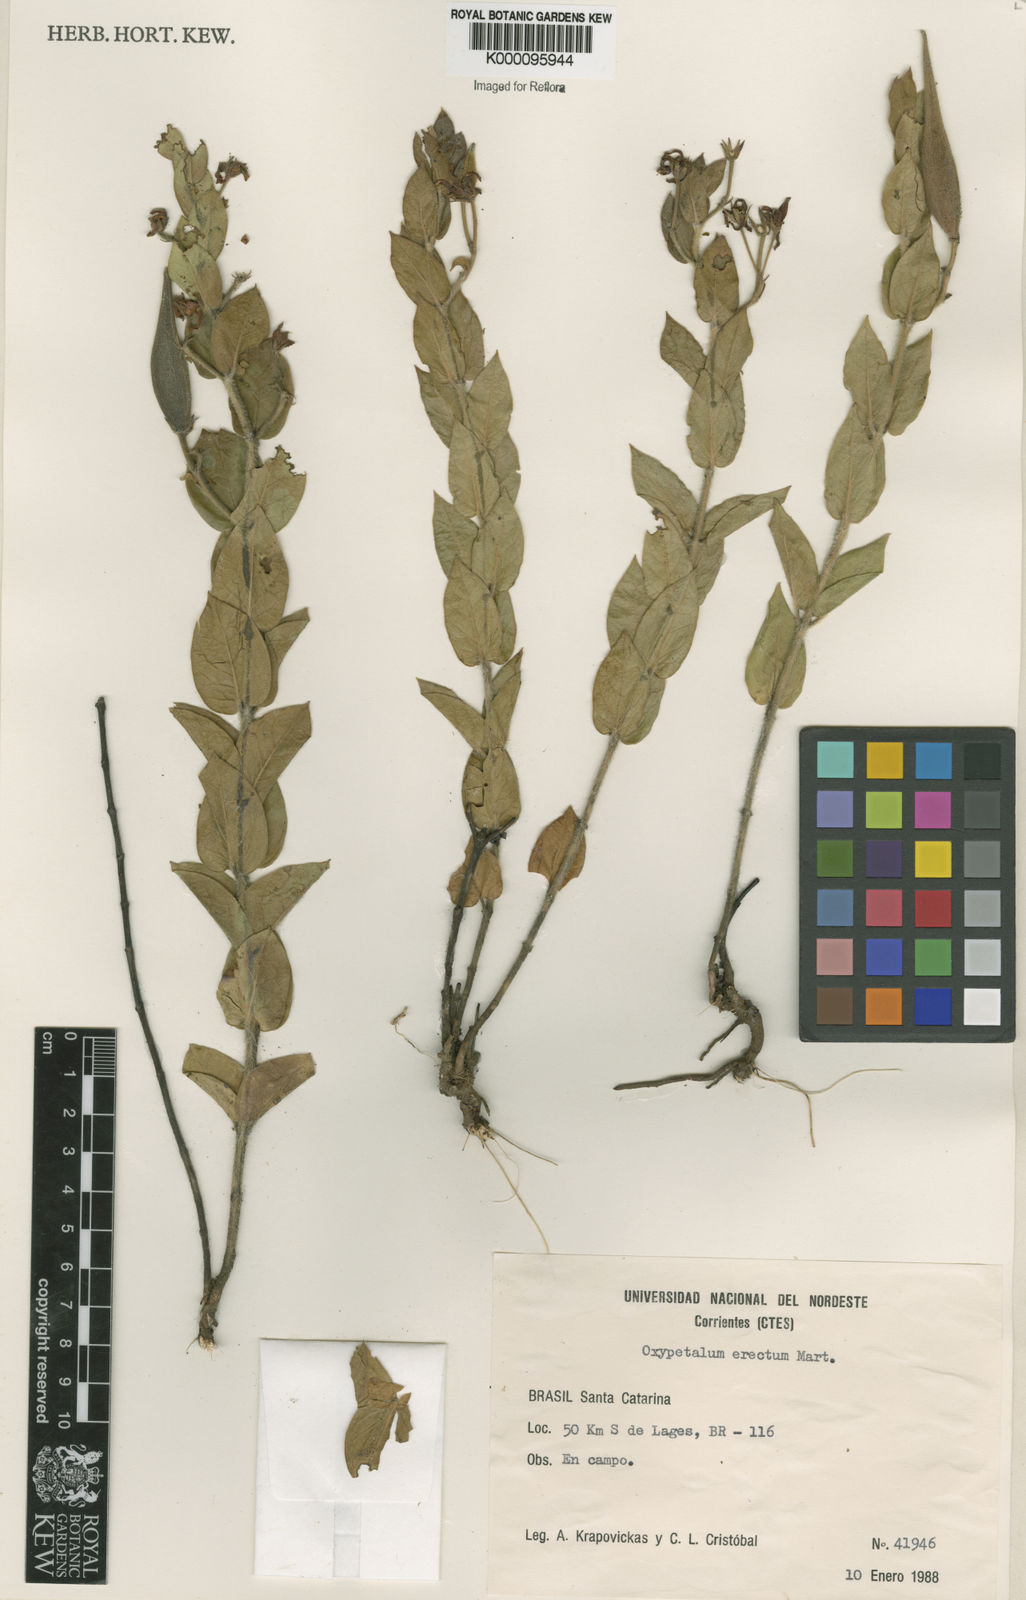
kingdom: Plantae
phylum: Tracheophyta
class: Magnoliopsida
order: Gentianales
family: Apocynaceae
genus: Oxypetalum
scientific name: Oxypetalum erectum
